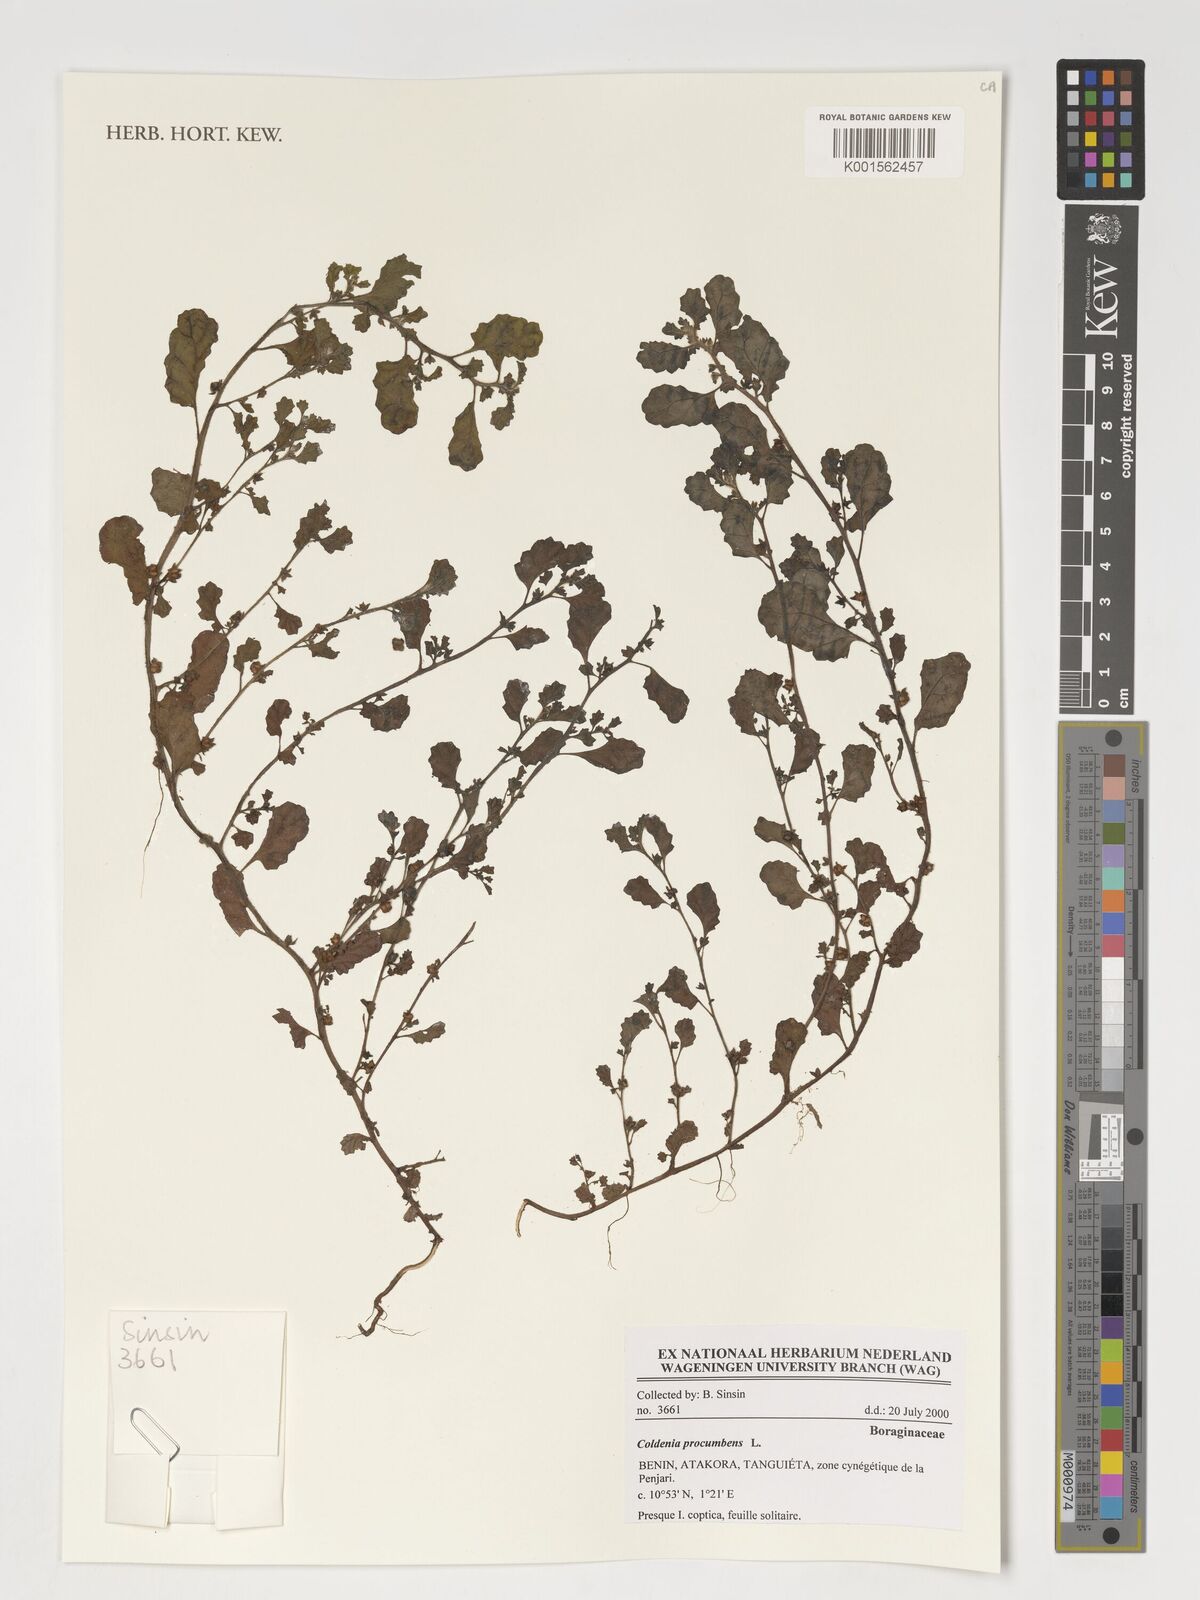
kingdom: Plantae
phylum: Tracheophyta
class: Magnoliopsida
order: Boraginales
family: Coldeniaceae
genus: Coldenia
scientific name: Coldenia procumbens
